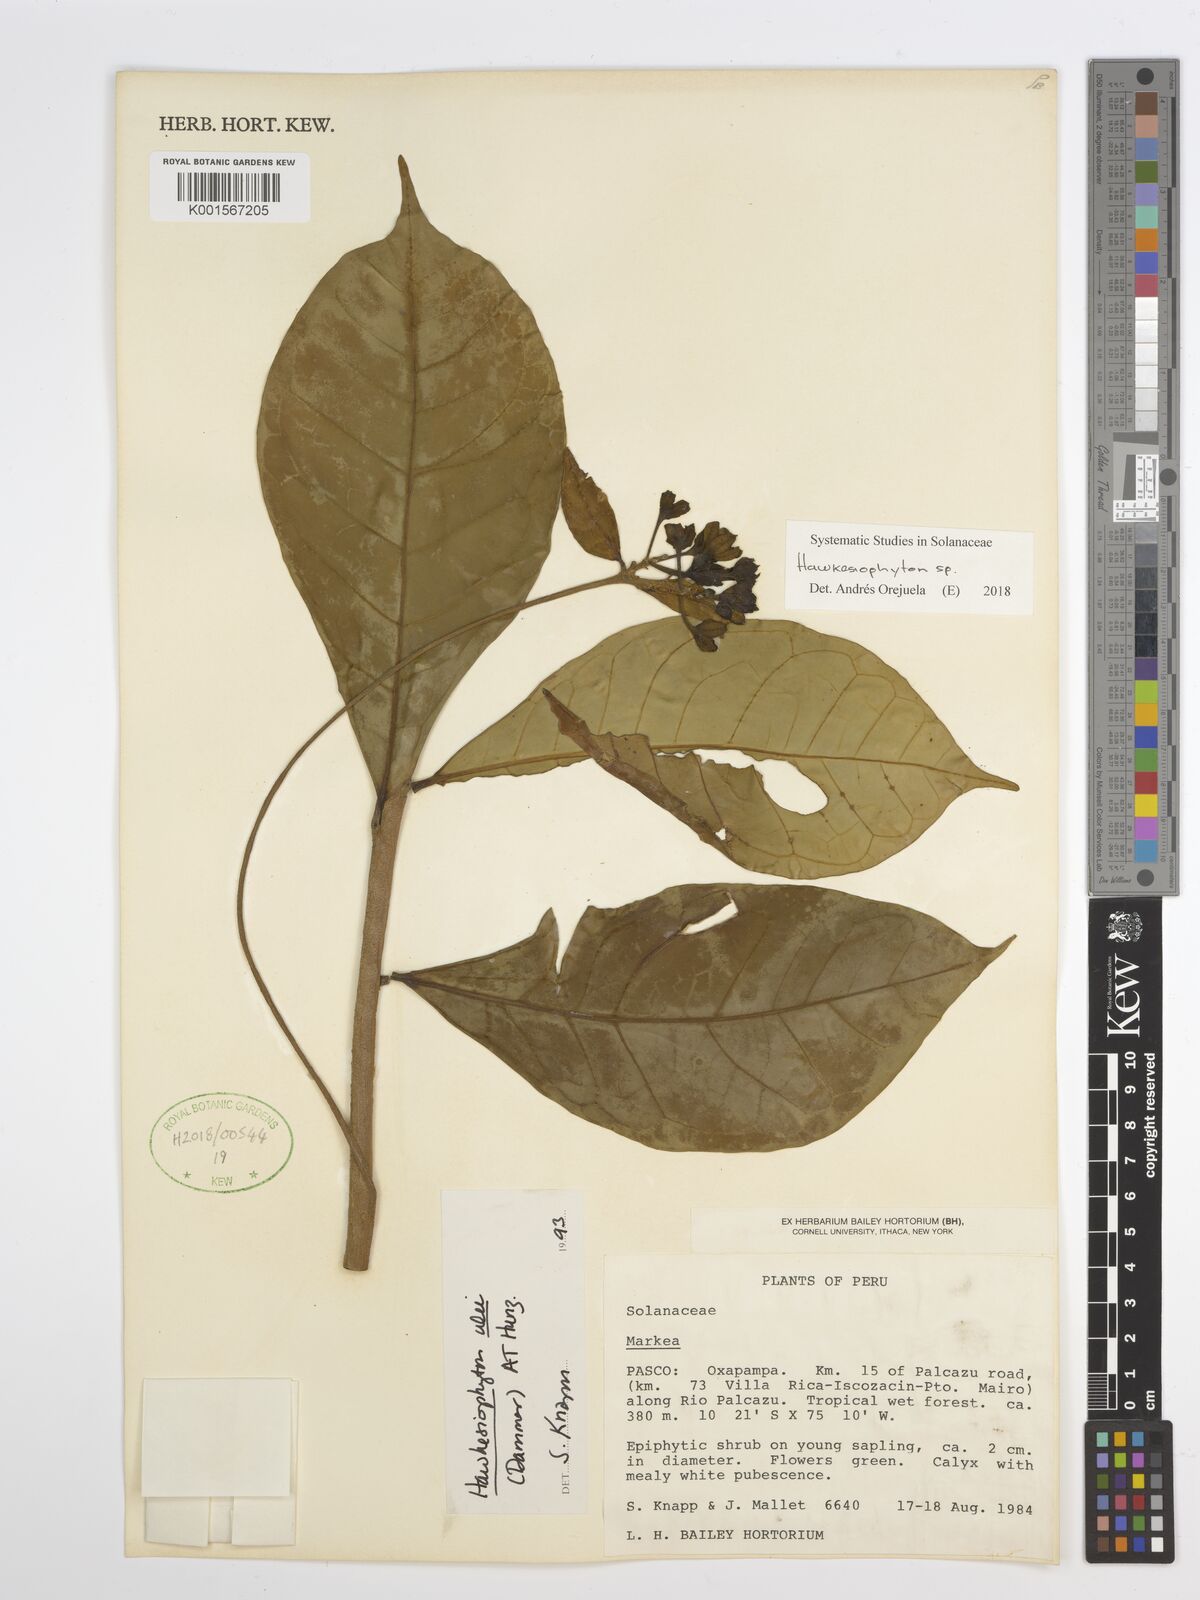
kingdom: Plantae
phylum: Tracheophyta
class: Magnoliopsida
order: Solanales
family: Solanaceae
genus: Hawkesiophyton
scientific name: Hawkesiophyton
